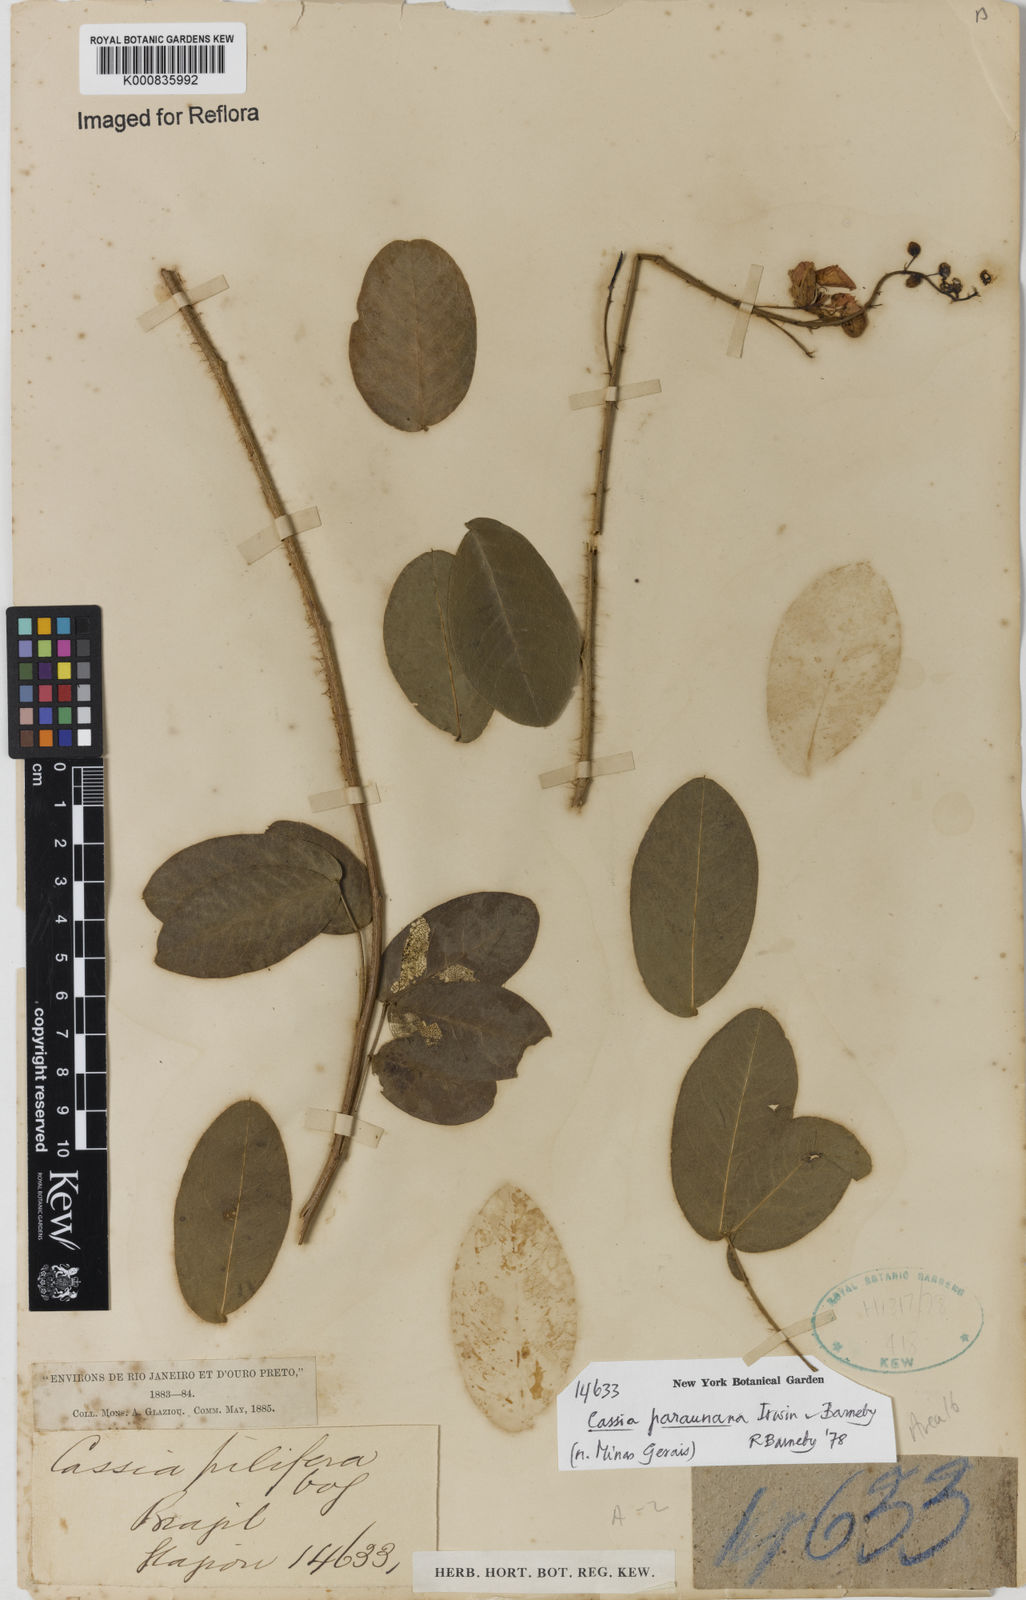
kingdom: Plantae
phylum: Tracheophyta
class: Magnoliopsida
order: Fabales
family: Fabaceae
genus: Chamaecrista
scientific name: Chamaecrista paraunana
